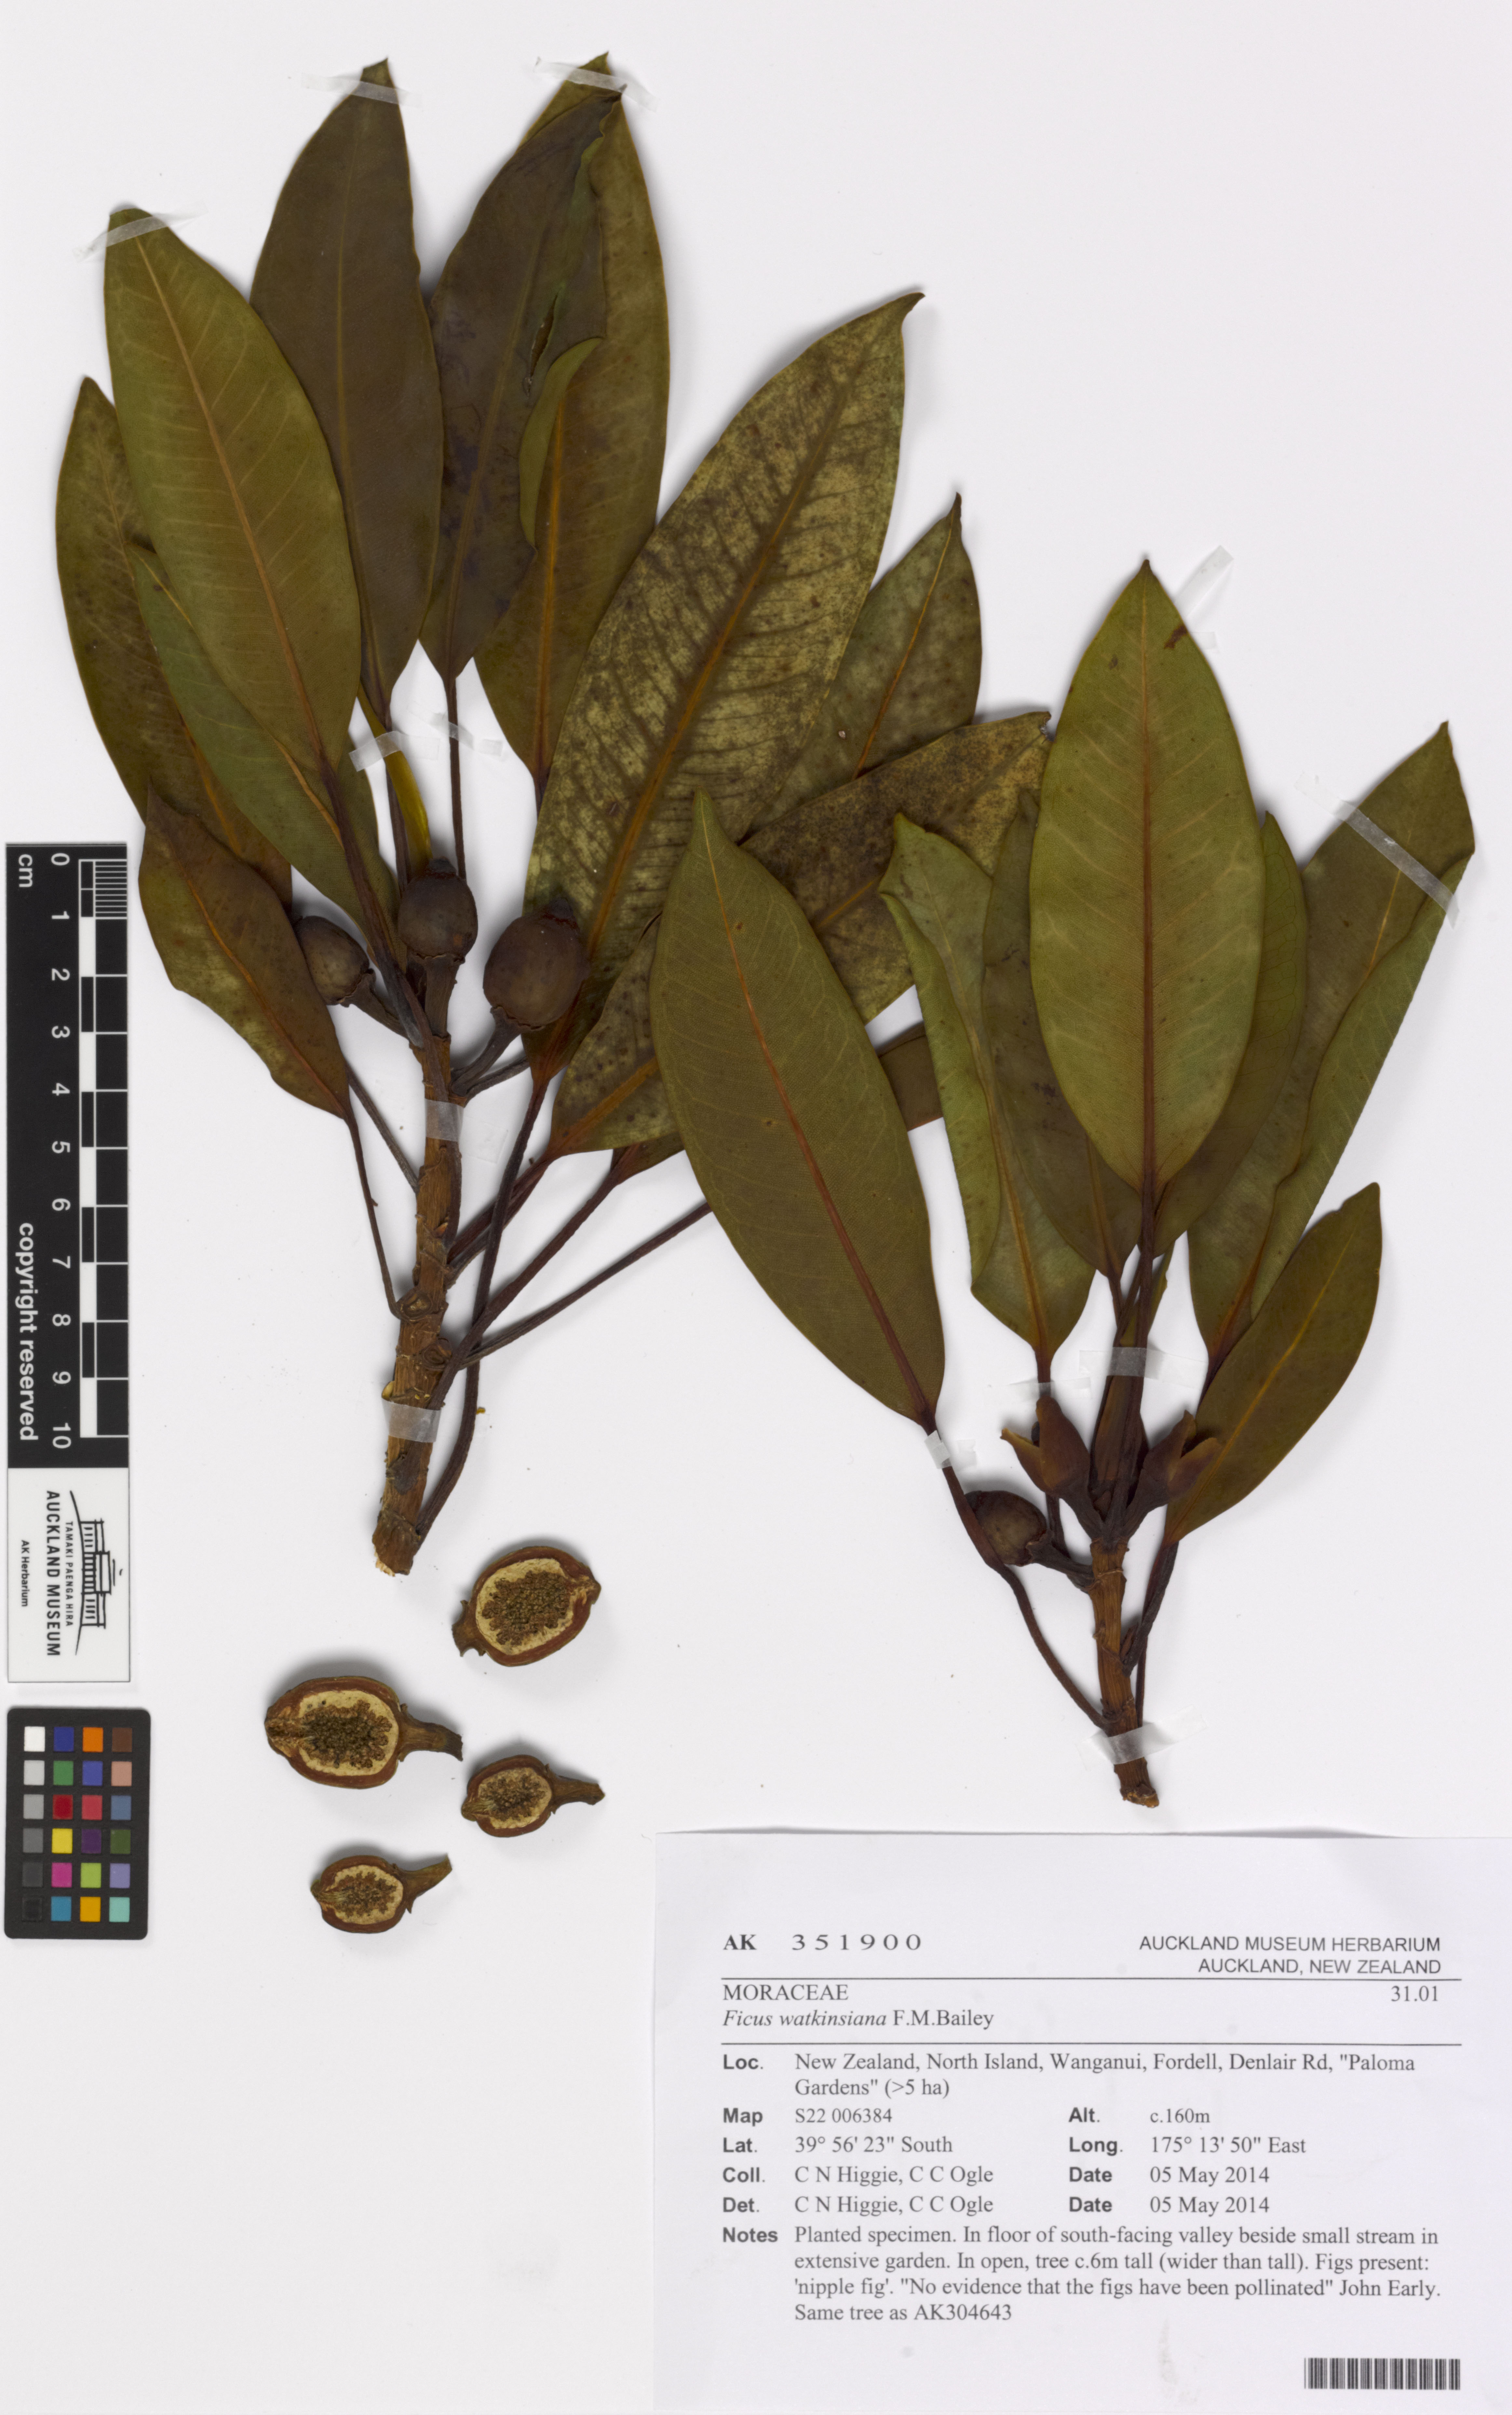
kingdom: Plantae
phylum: Tracheophyta
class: Magnoliopsida
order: Rosales
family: Moraceae
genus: Ficus
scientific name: Ficus watkinsiana
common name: Watkins fig
